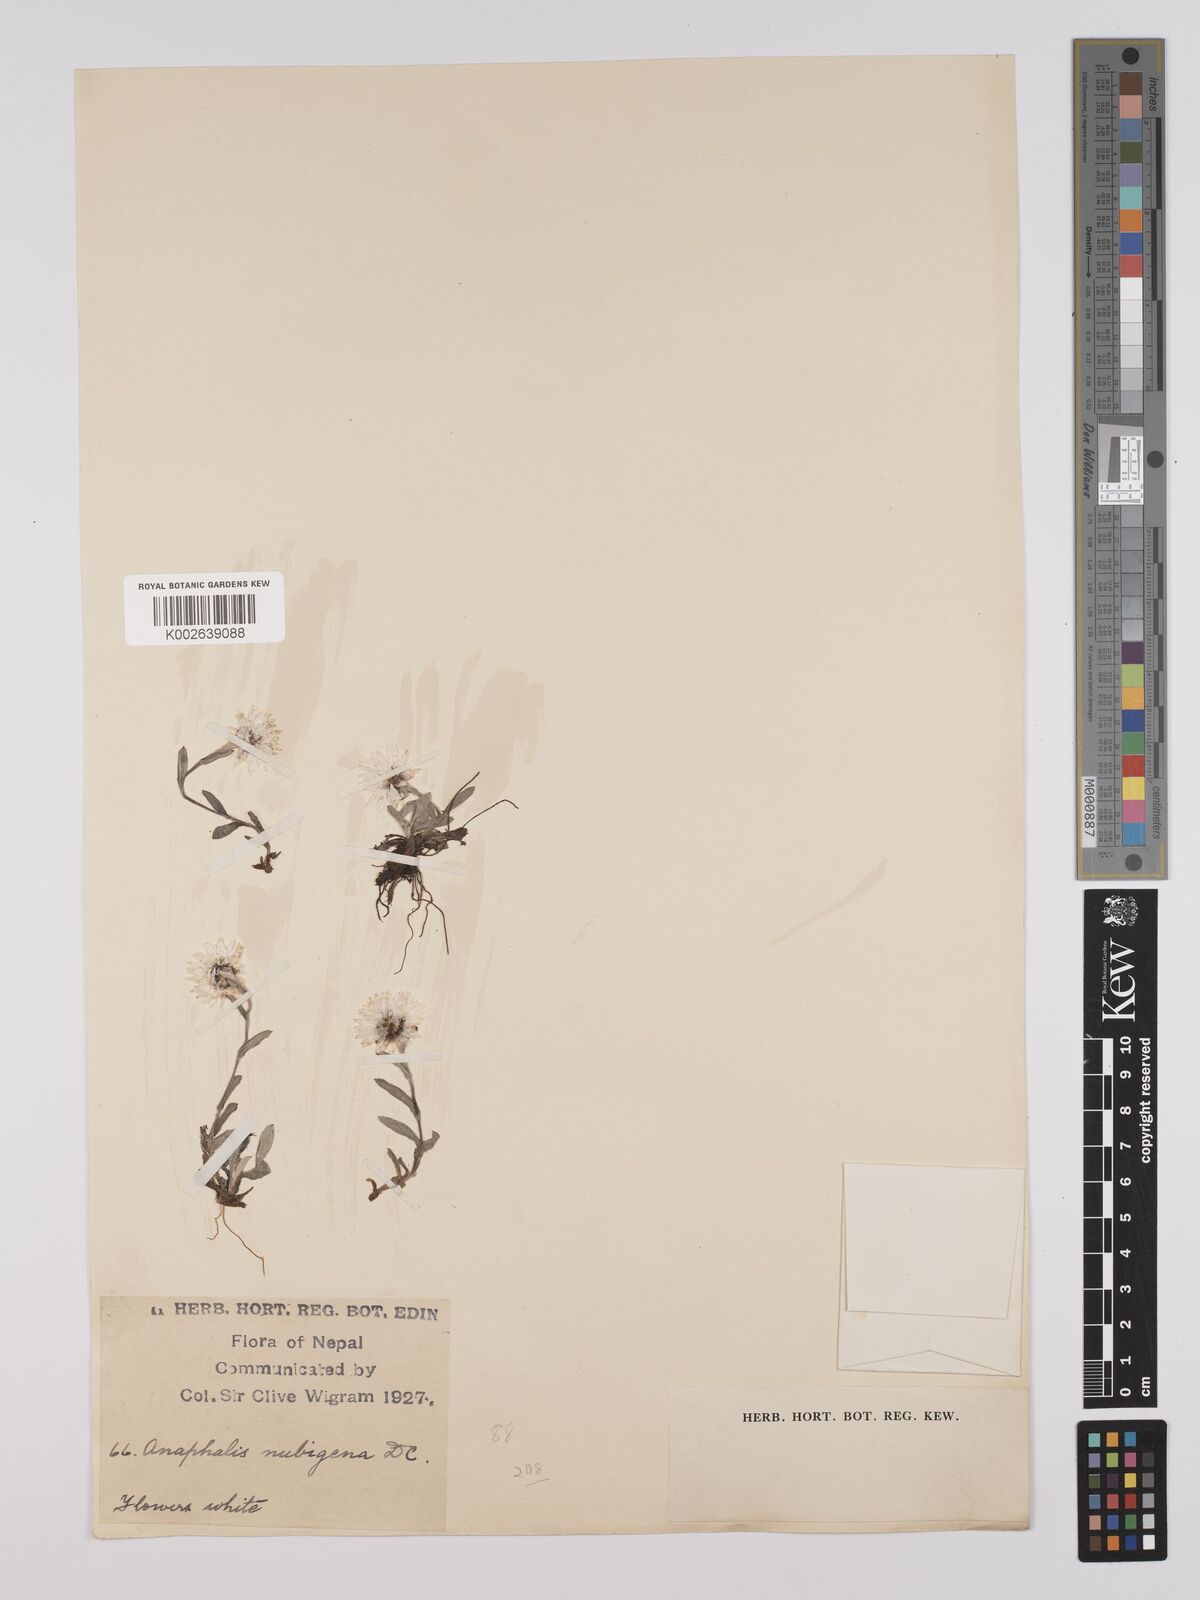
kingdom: Plantae
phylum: Tracheophyta
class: Magnoliopsida
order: Asterales
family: Asteraceae
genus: Anaphalis
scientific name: Anaphalis nepalensis
